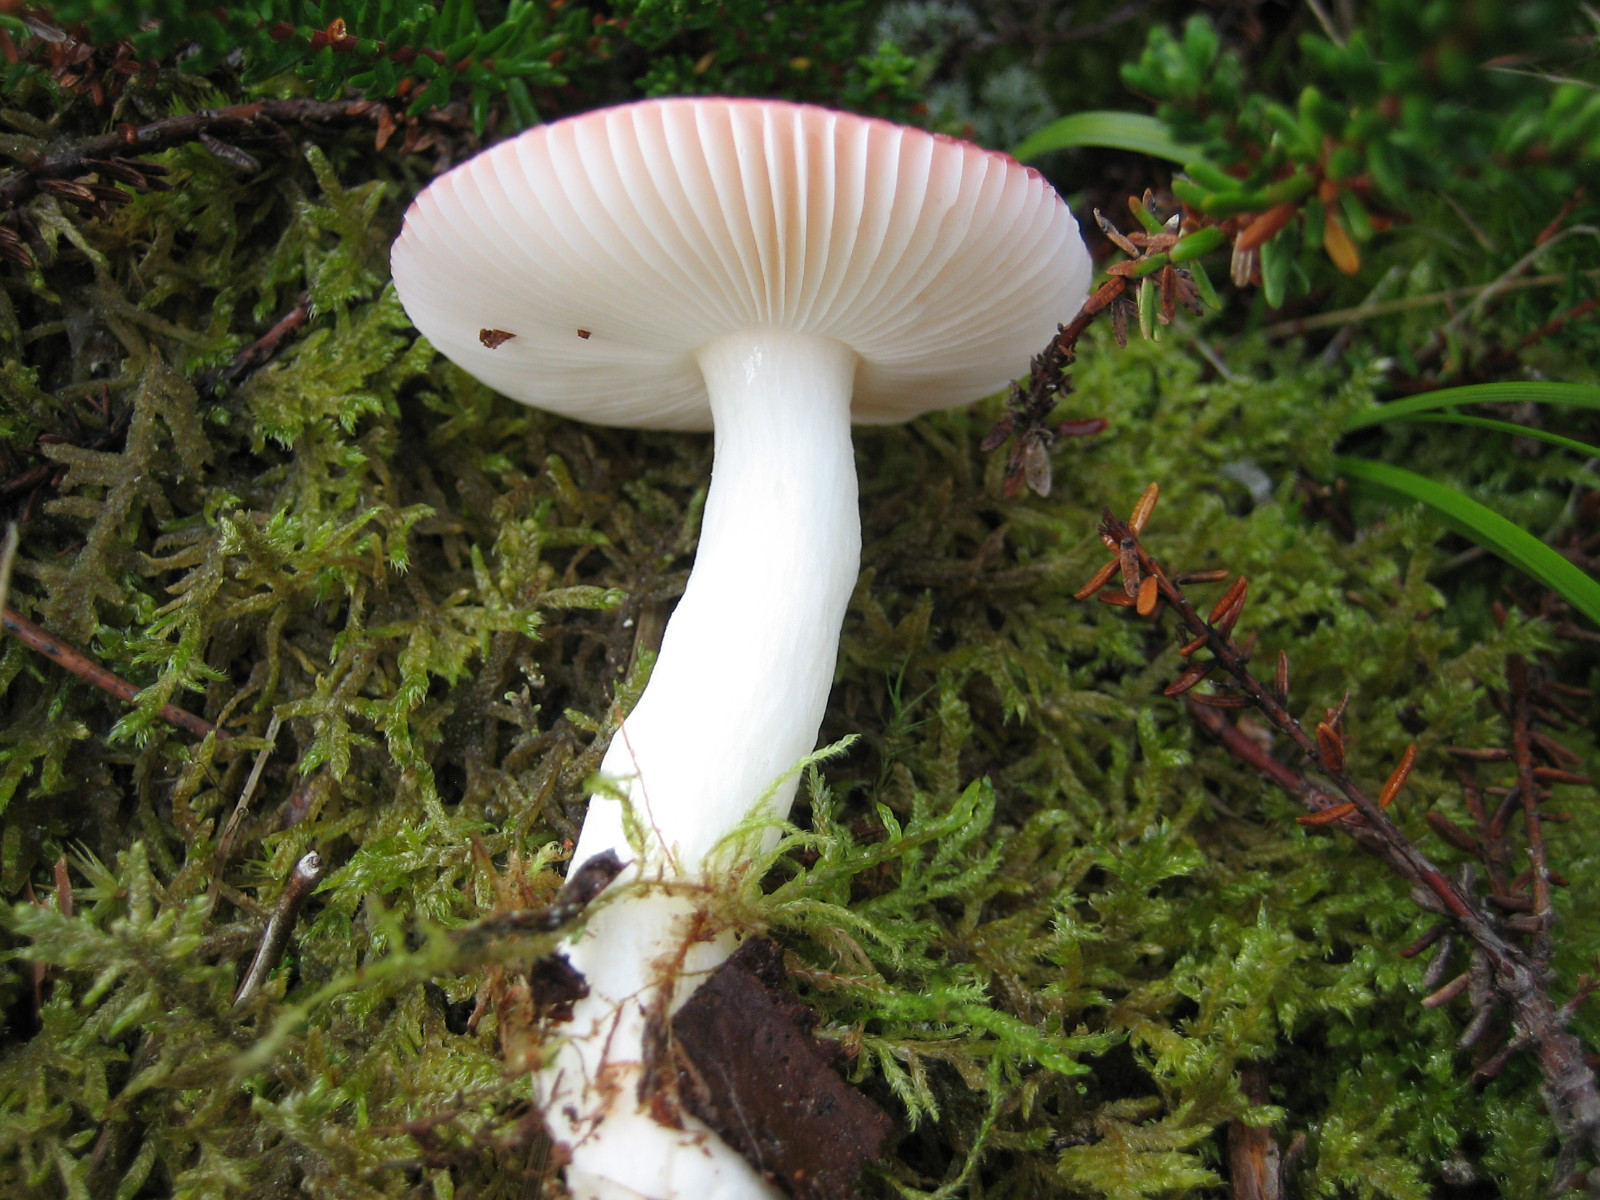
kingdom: Fungi
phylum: Basidiomycota
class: Agaricomycetes
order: Russulales
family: Russulaceae
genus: Russula
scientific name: Russula emetica
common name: stor gift-skørhat
